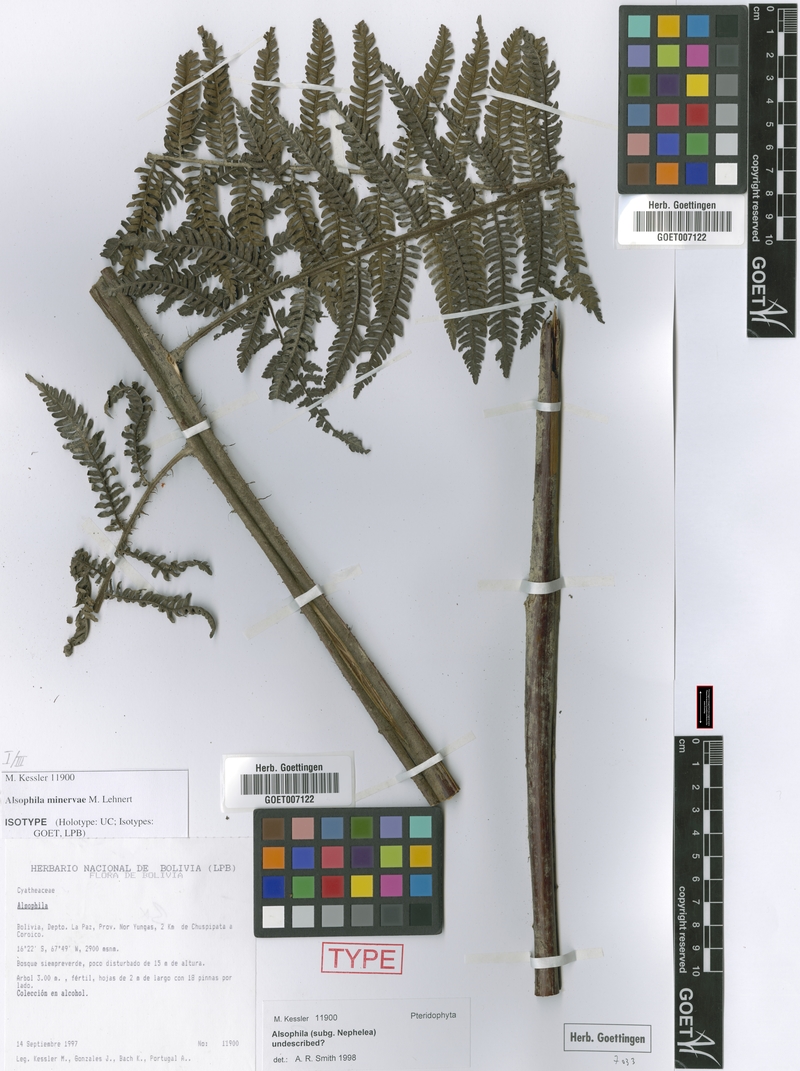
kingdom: Plantae
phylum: Tracheophyta
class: Polypodiopsida
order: Cyatheales
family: Cyatheaceae
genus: Alsophila
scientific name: Alsophila minervae
